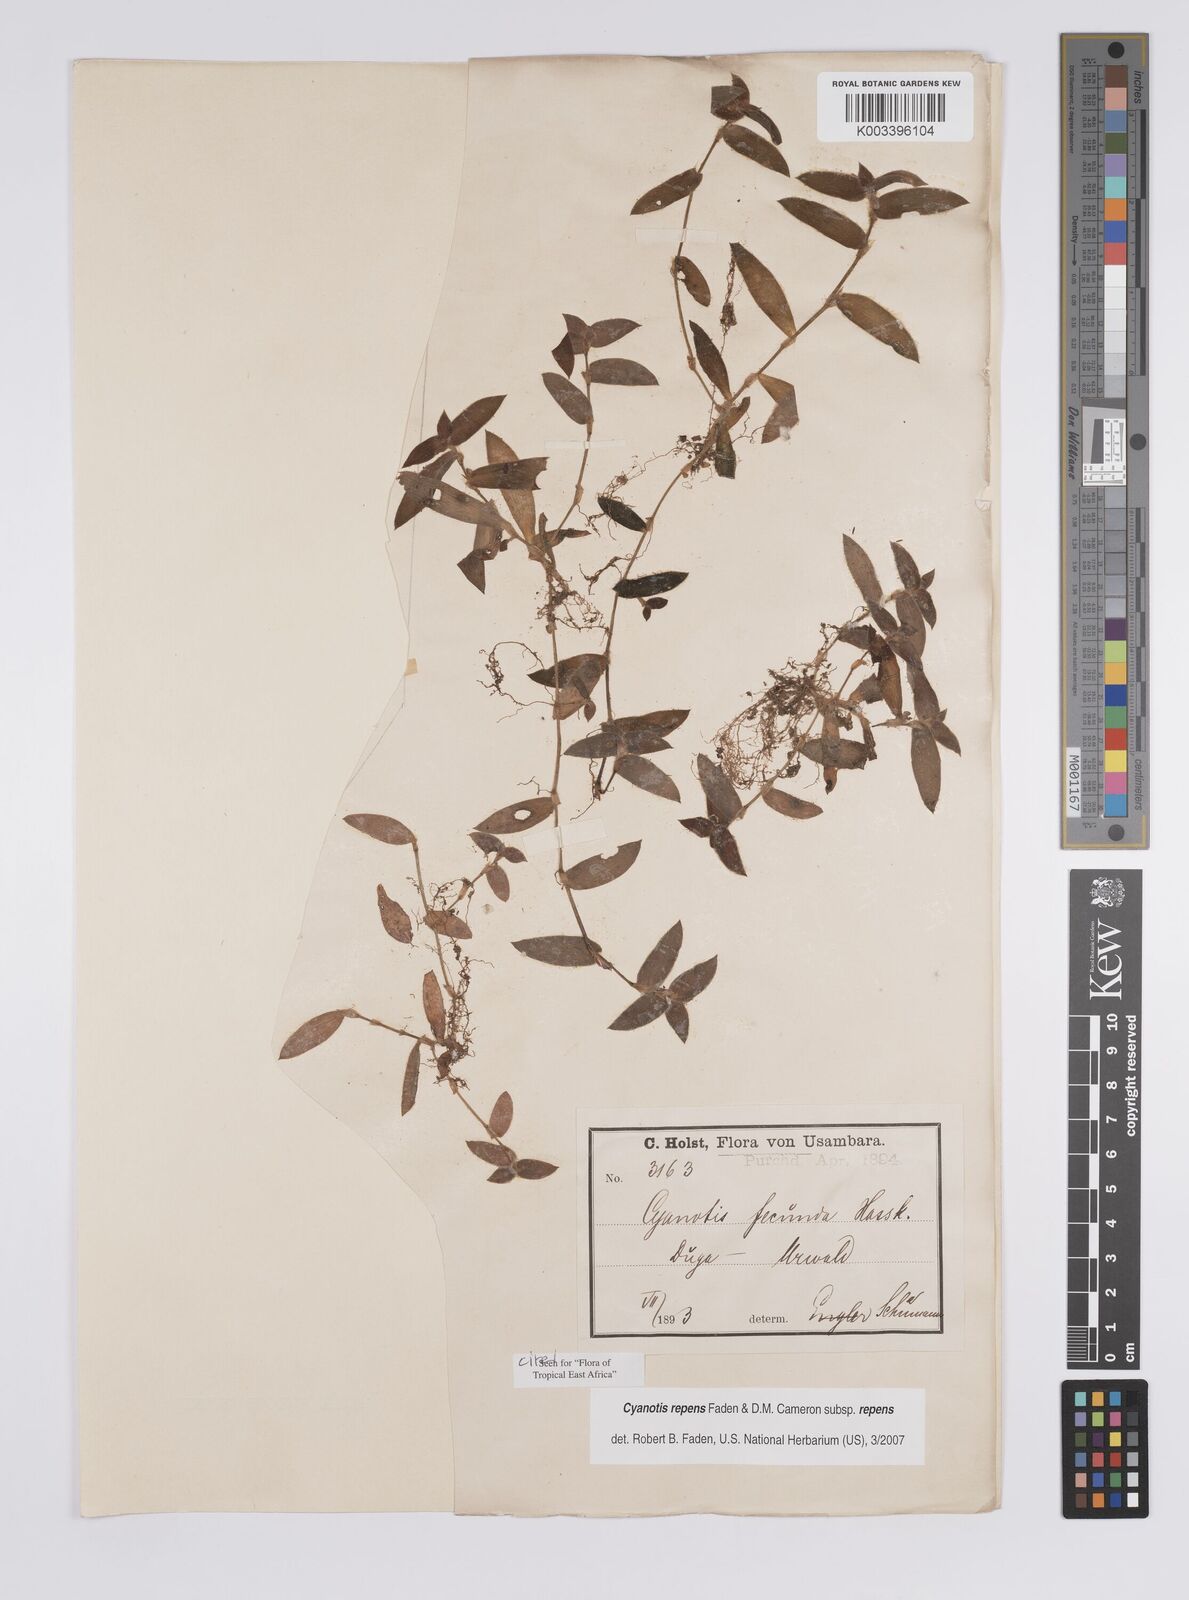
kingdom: Plantae
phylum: Tracheophyta
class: Liliopsida
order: Commelinales
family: Commelinaceae
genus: Cyanotis
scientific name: Cyanotis repens
